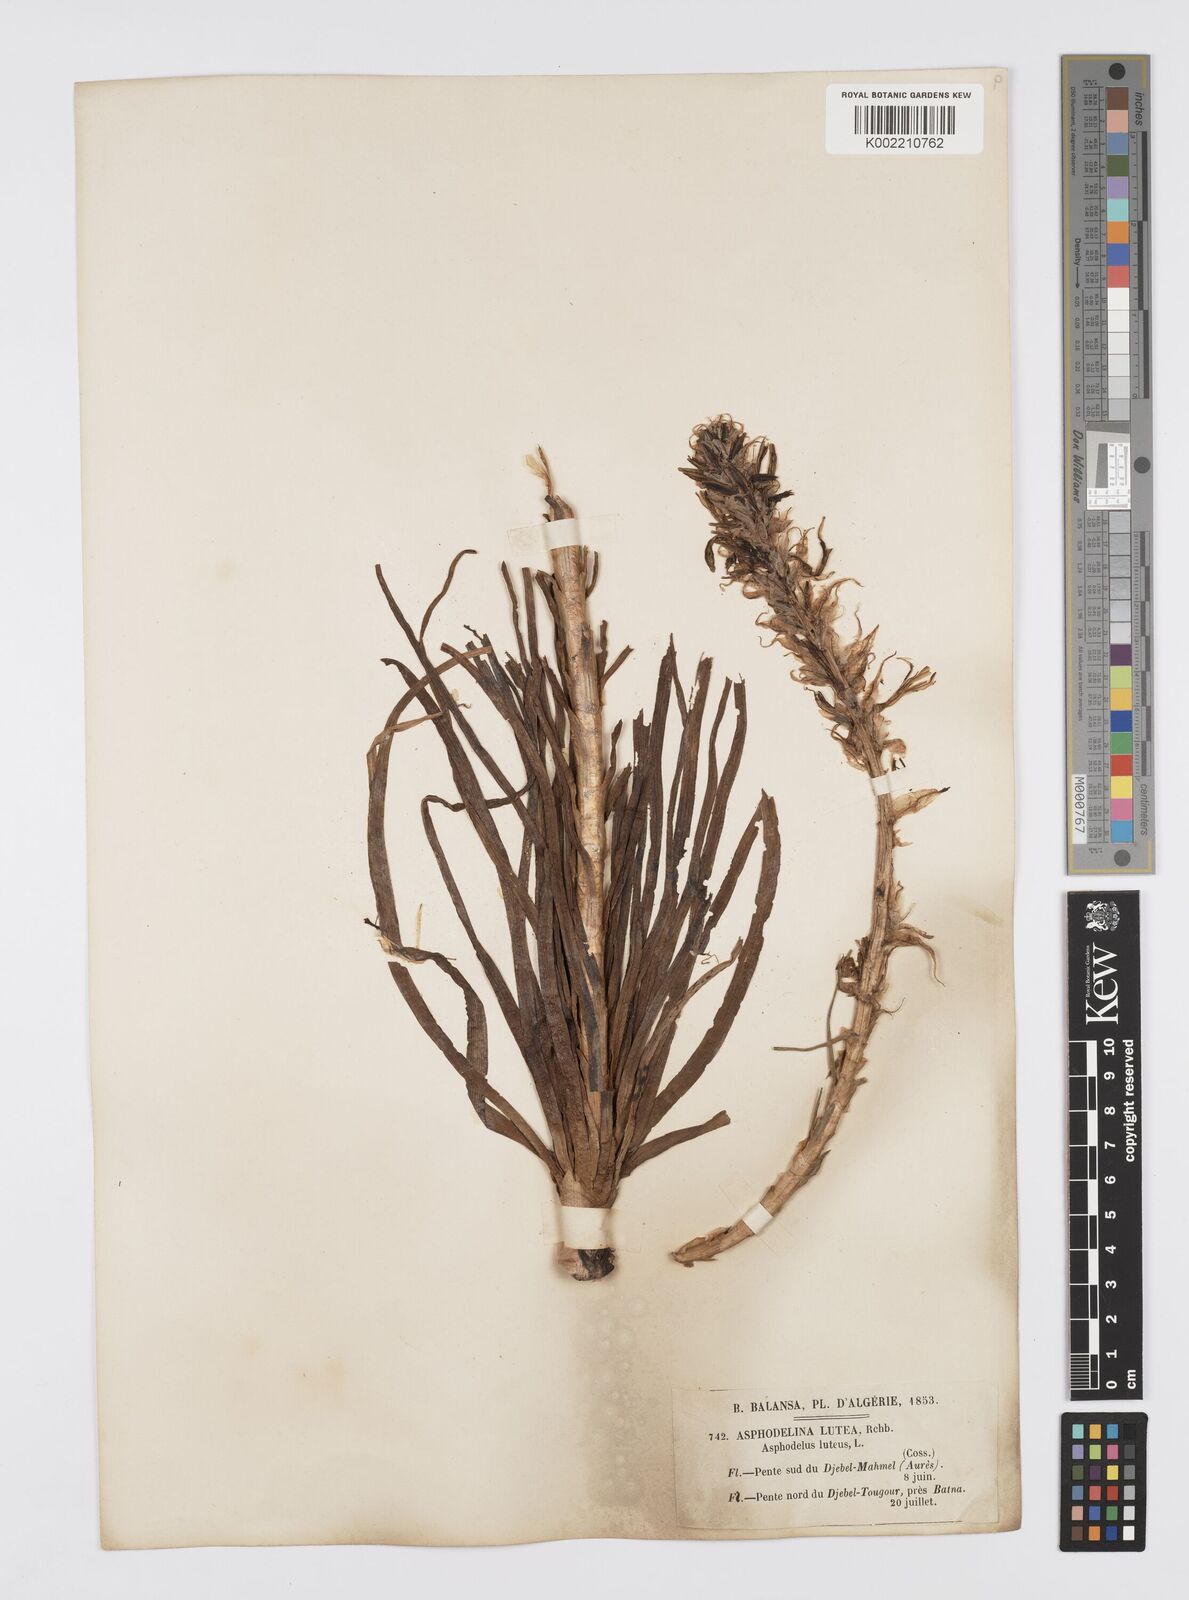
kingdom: Plantae
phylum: Tracheophyta
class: Liliopsida
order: Asparagales
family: Asphodelaceae
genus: Asphodeline
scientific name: Asphodeline lutea
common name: Yellow asphodel
